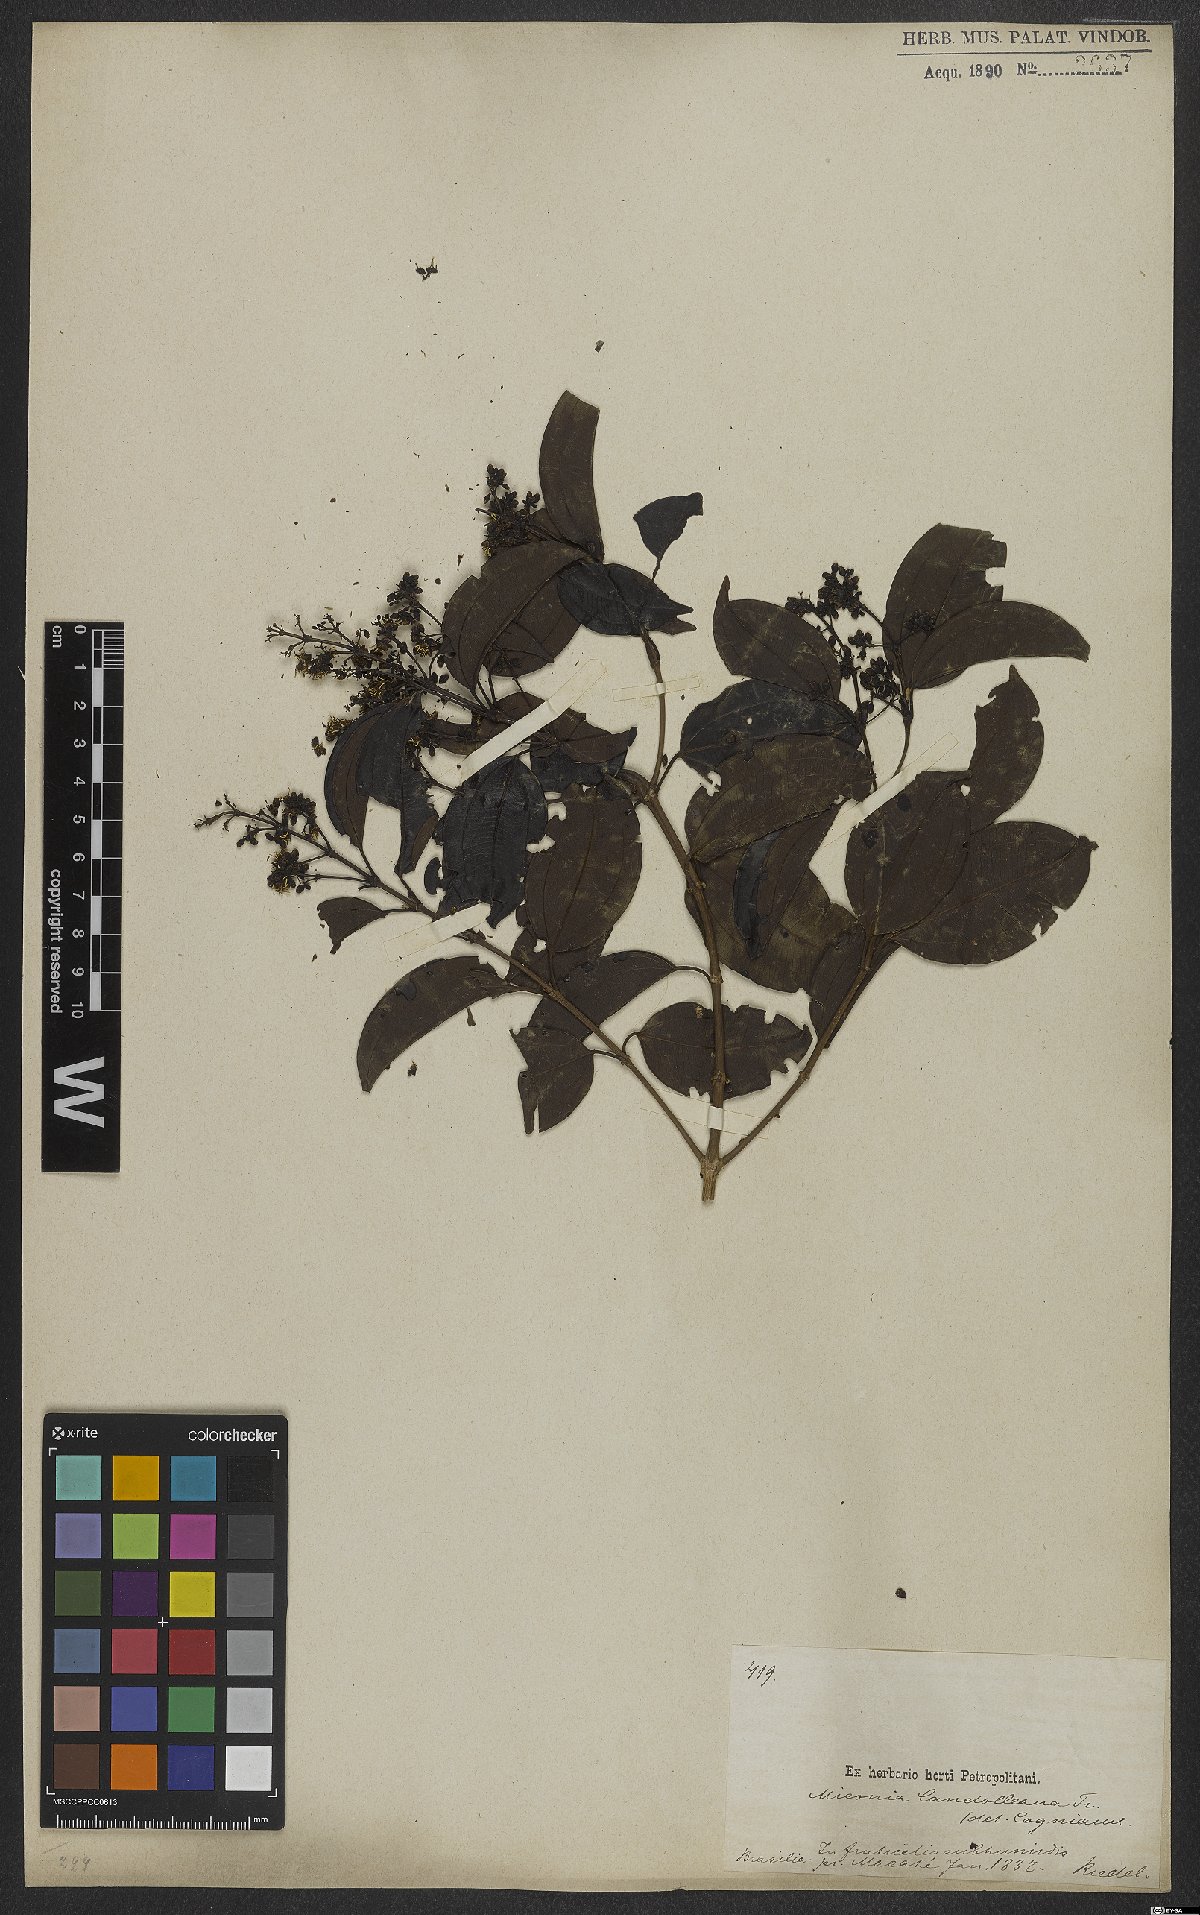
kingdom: Plantae
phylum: Tracheophyta
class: Magnoliopsida
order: Myrtales
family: Melastomataceae
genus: Miconia
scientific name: Miconia cinnamomifolia
